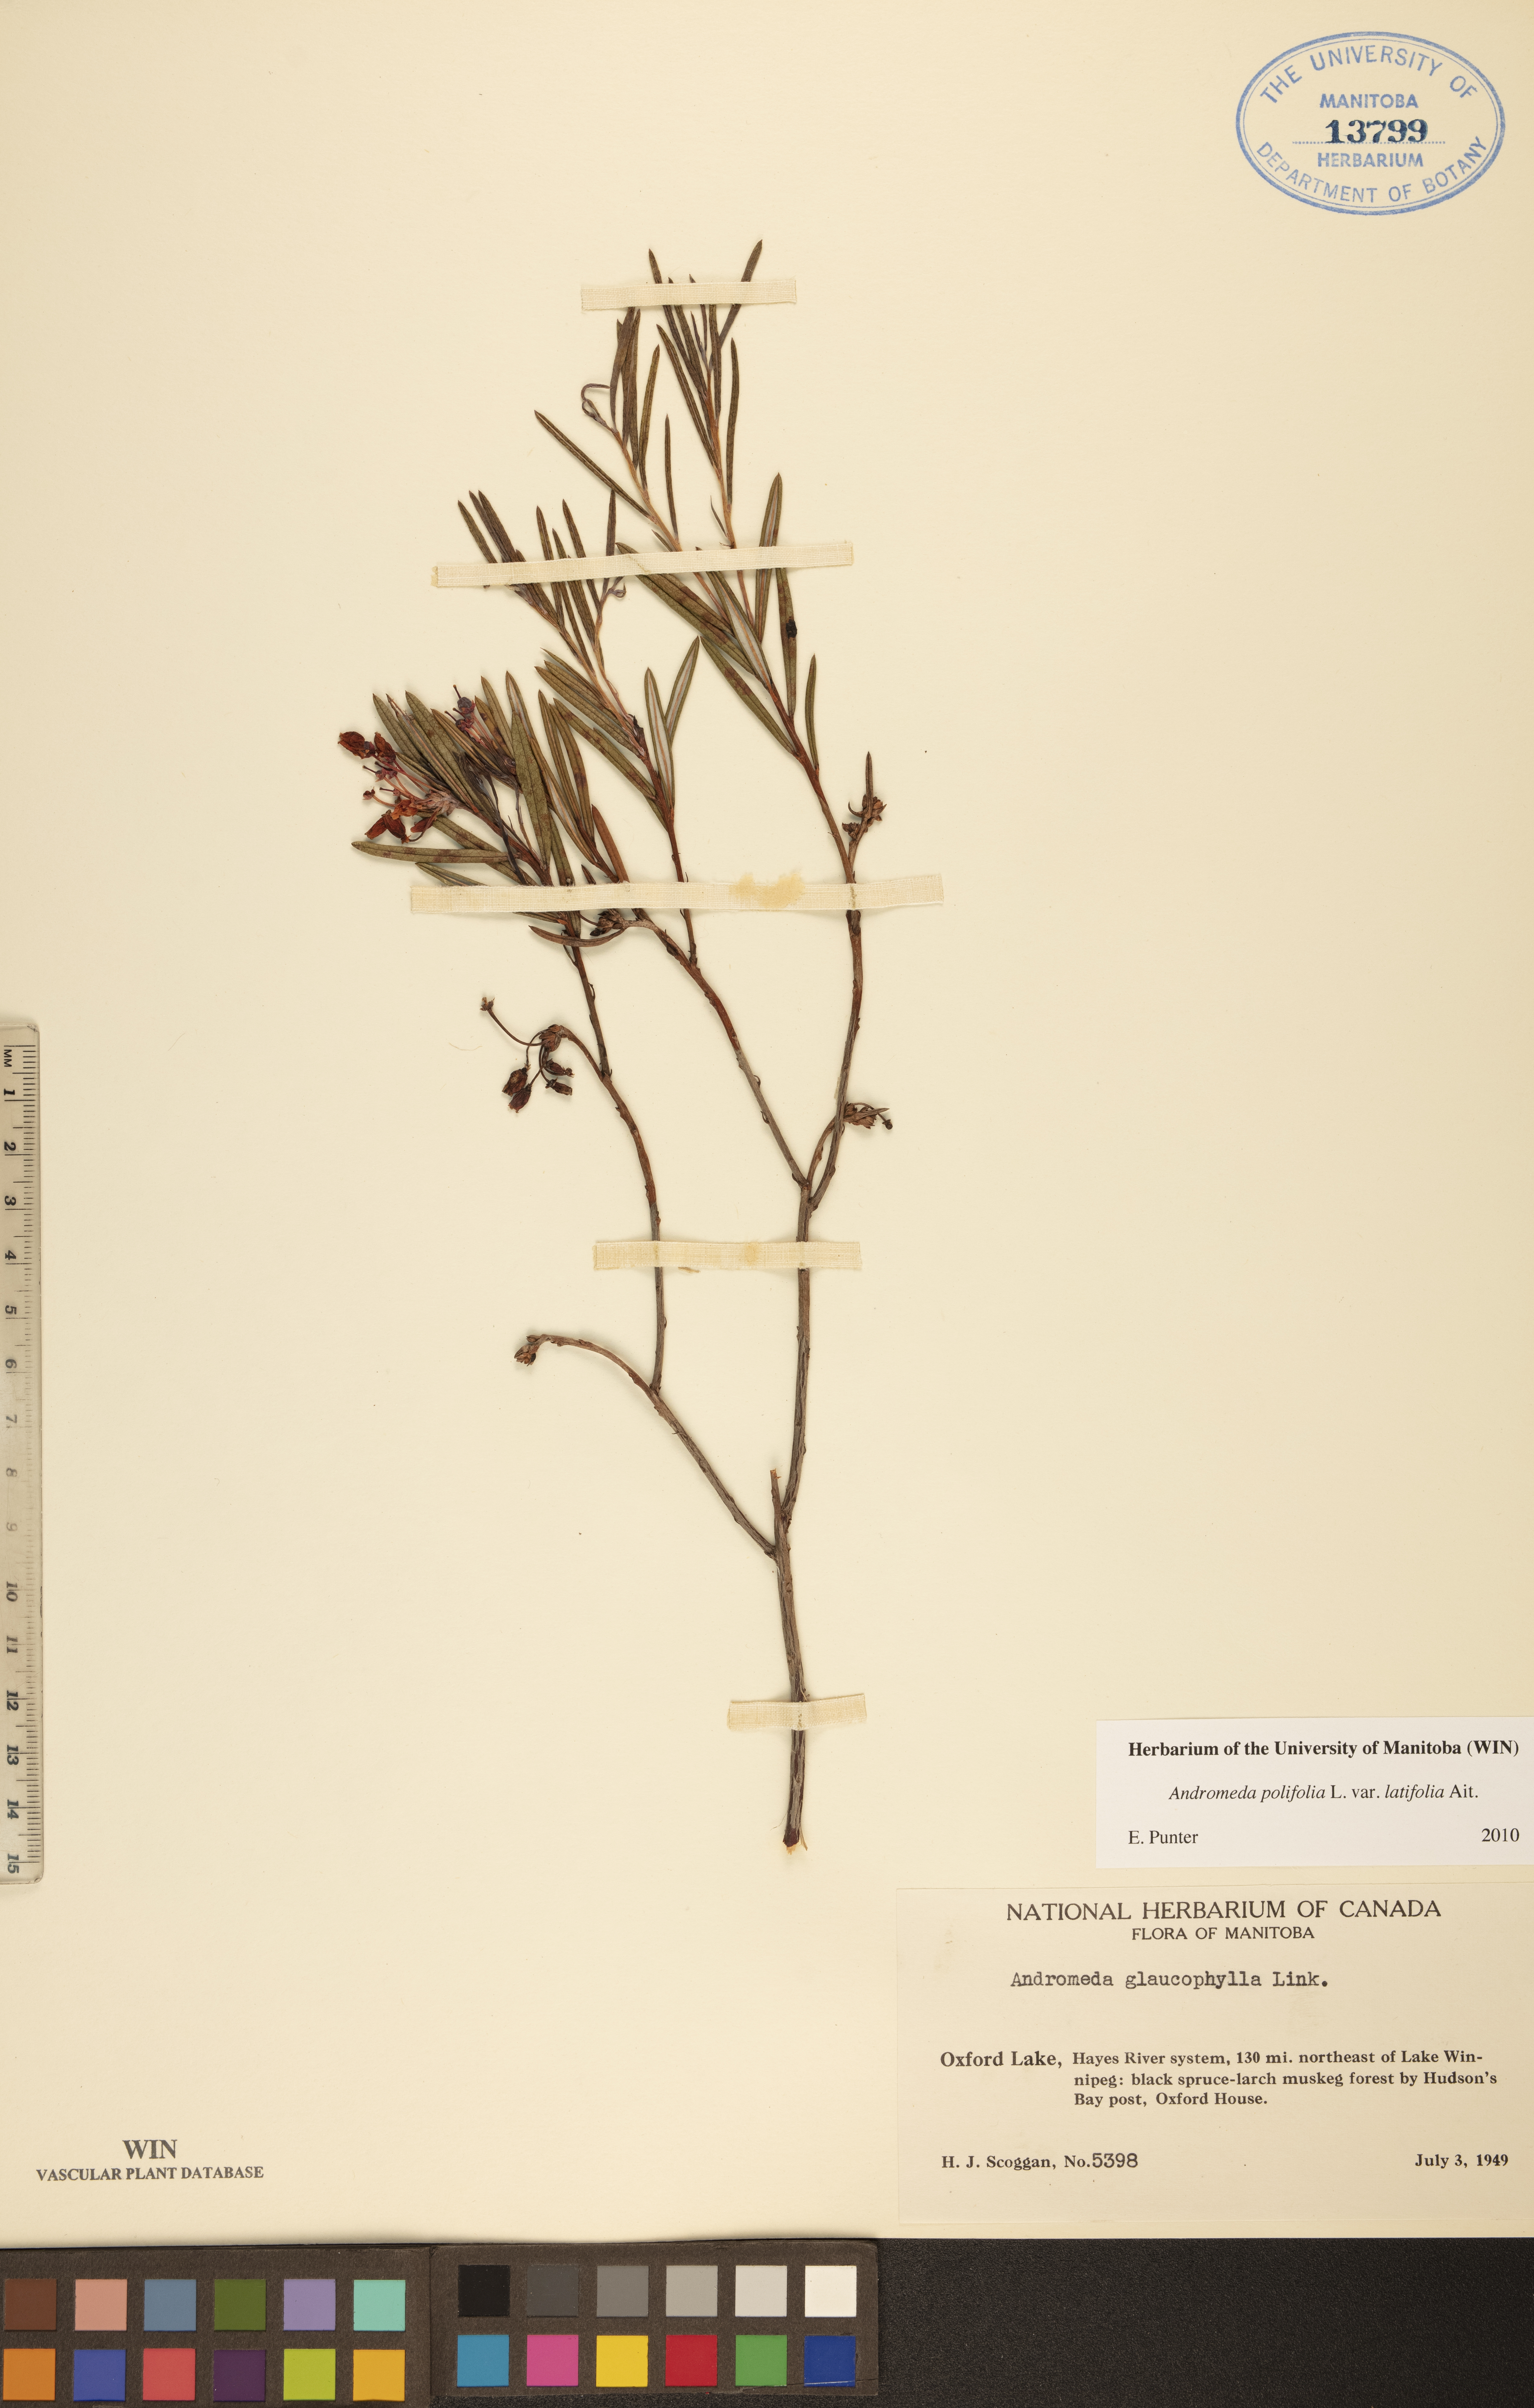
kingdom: Plantae
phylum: Tracheophyta
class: Magnoliopsida
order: Ericales
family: Ericaceae
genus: Andromeda
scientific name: Andromeda polifolia
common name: Bog-rosemary
